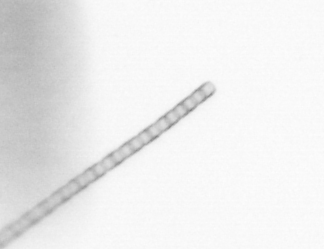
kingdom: Chromista
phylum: Ochrophyta
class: Bacillariophyceae
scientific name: Bacillariophyceae
